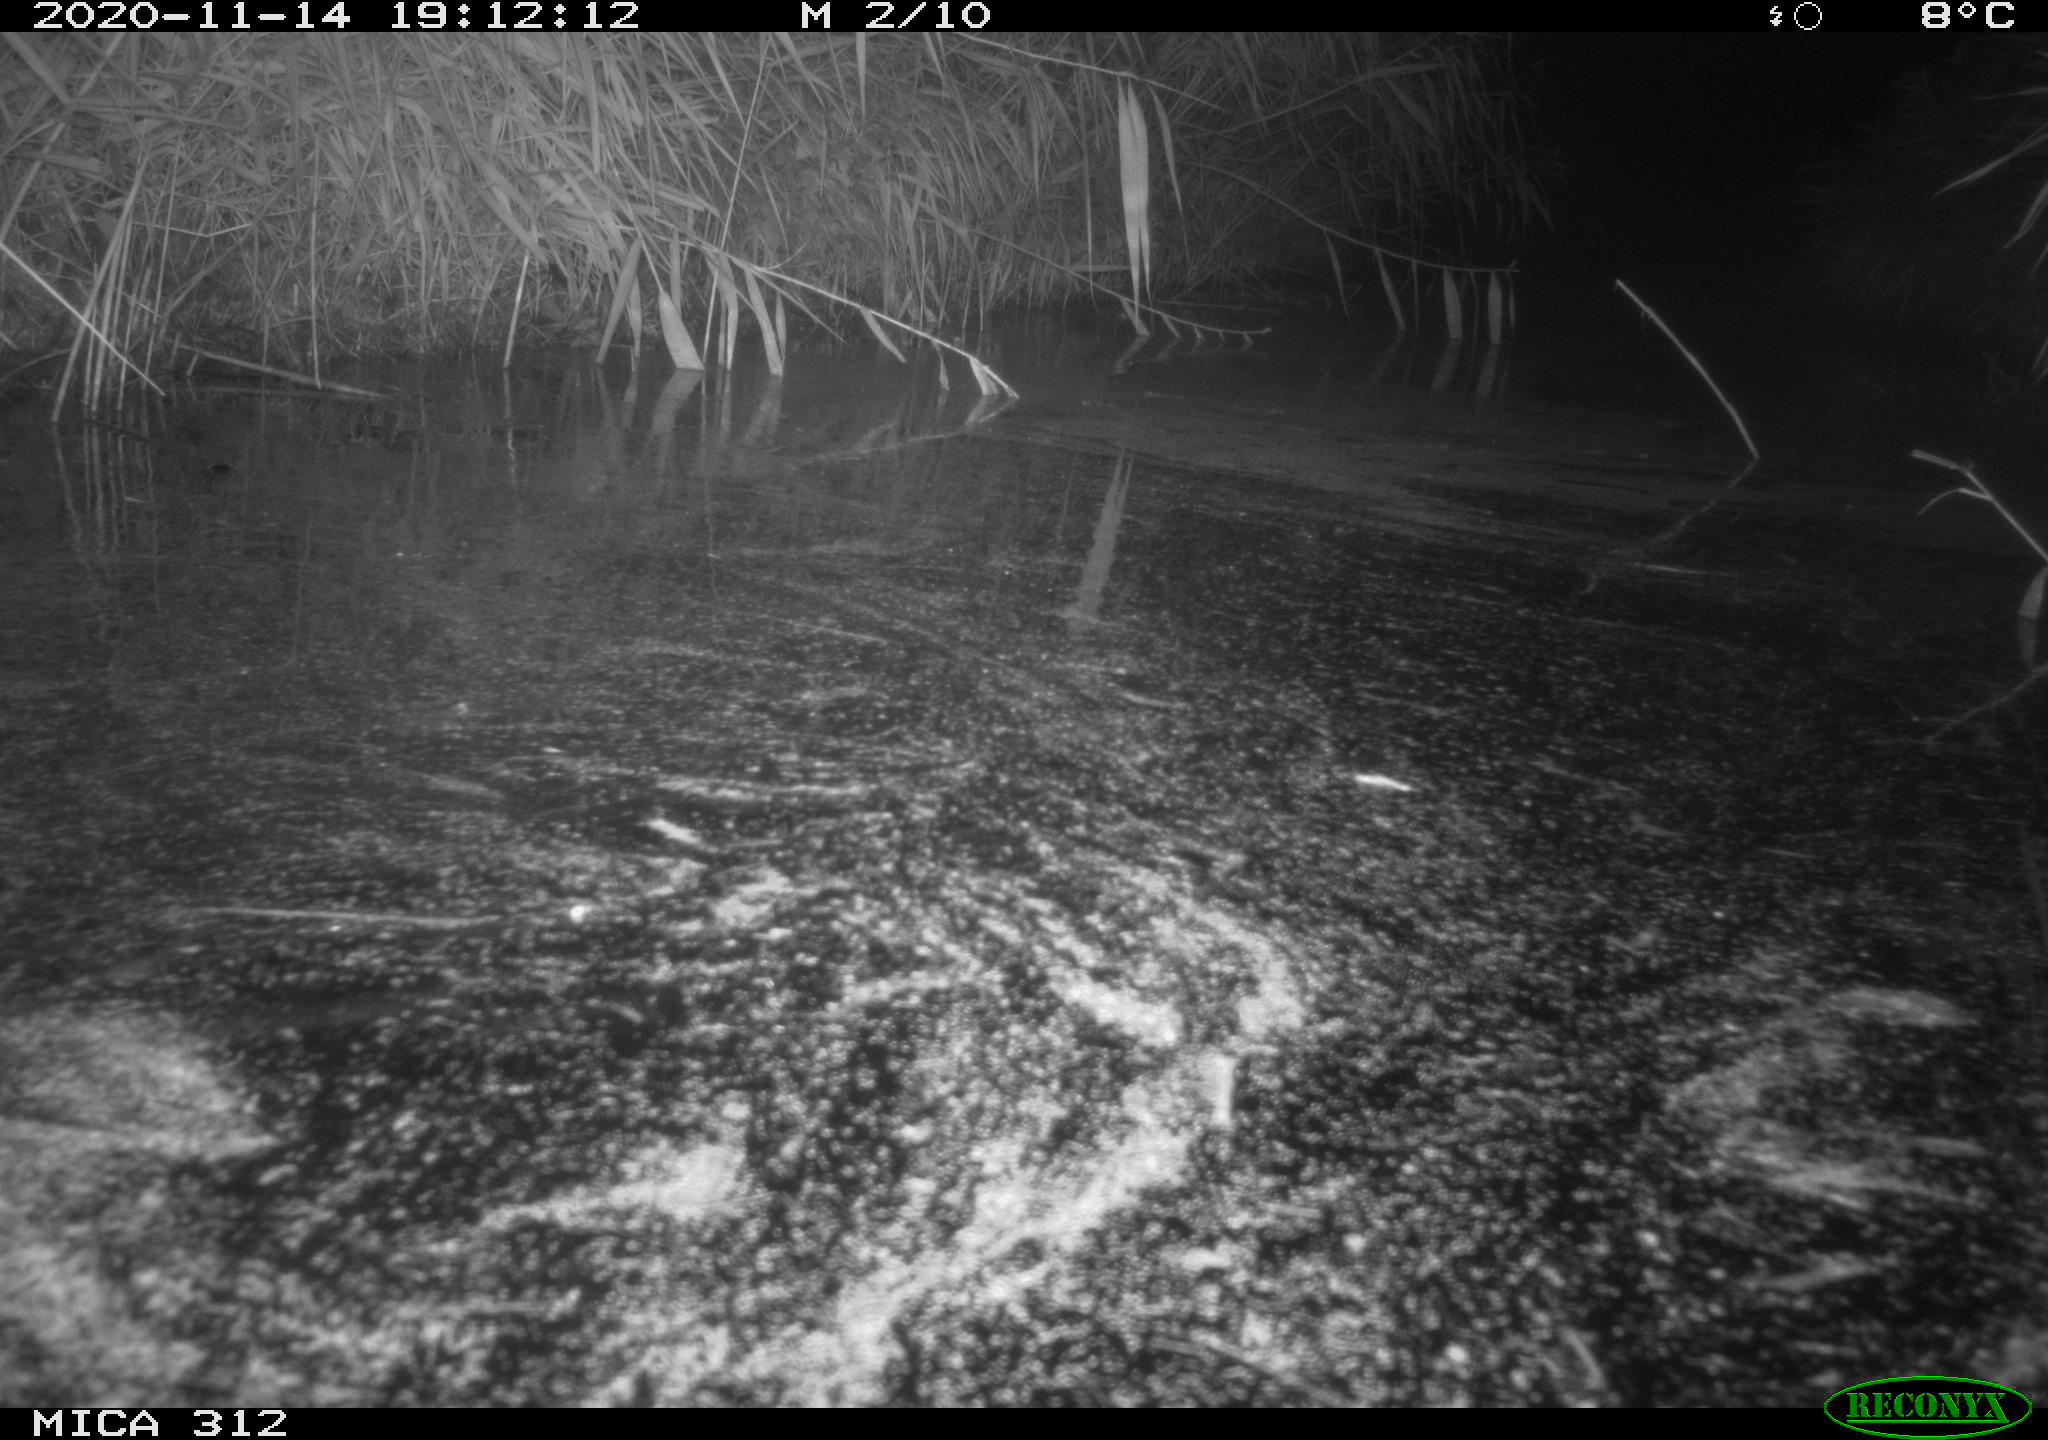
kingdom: Animalia
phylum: Chordata
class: Mammalia
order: Rodentia
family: Cricetidae
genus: Ondatra
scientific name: Ondatra zibethicus
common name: Muskrat
